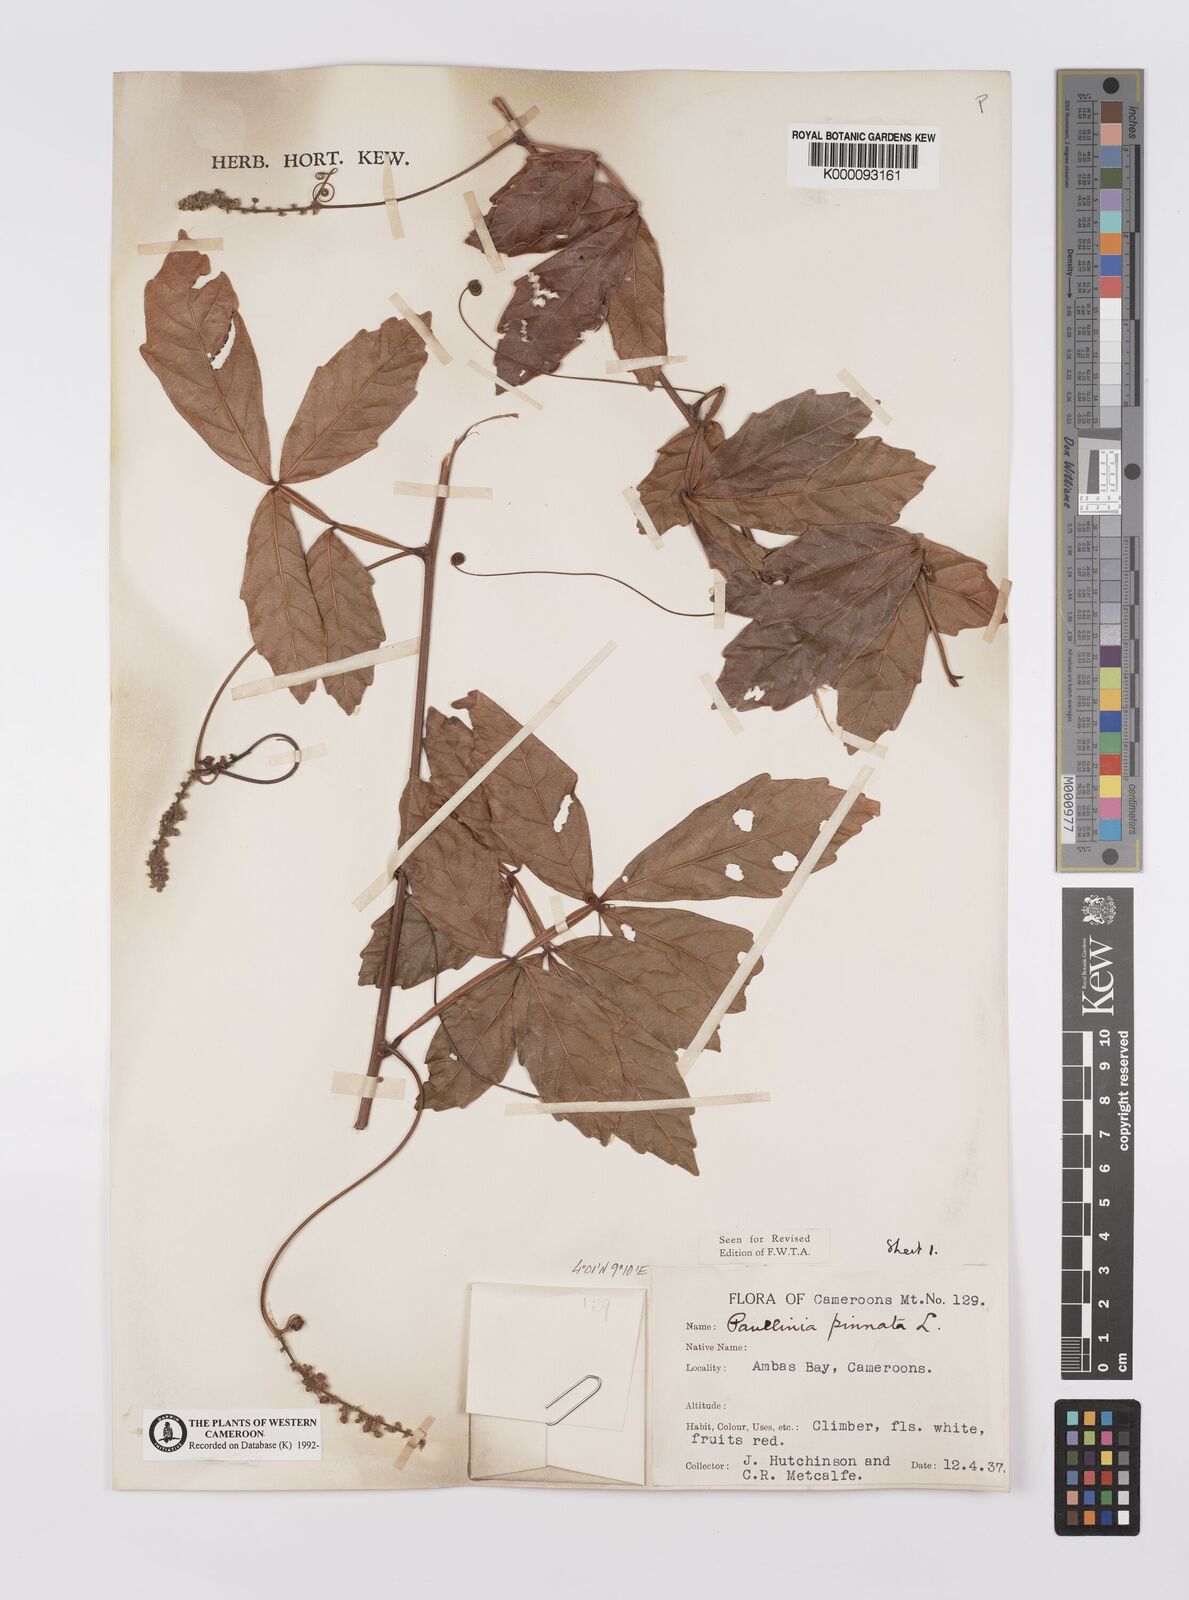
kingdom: Plantae
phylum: Tracheophyta
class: Magnoliopsida
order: Sapindales
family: Sapindaceae
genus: Paullinia
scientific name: Paullinia pinnata
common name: Barbasco
